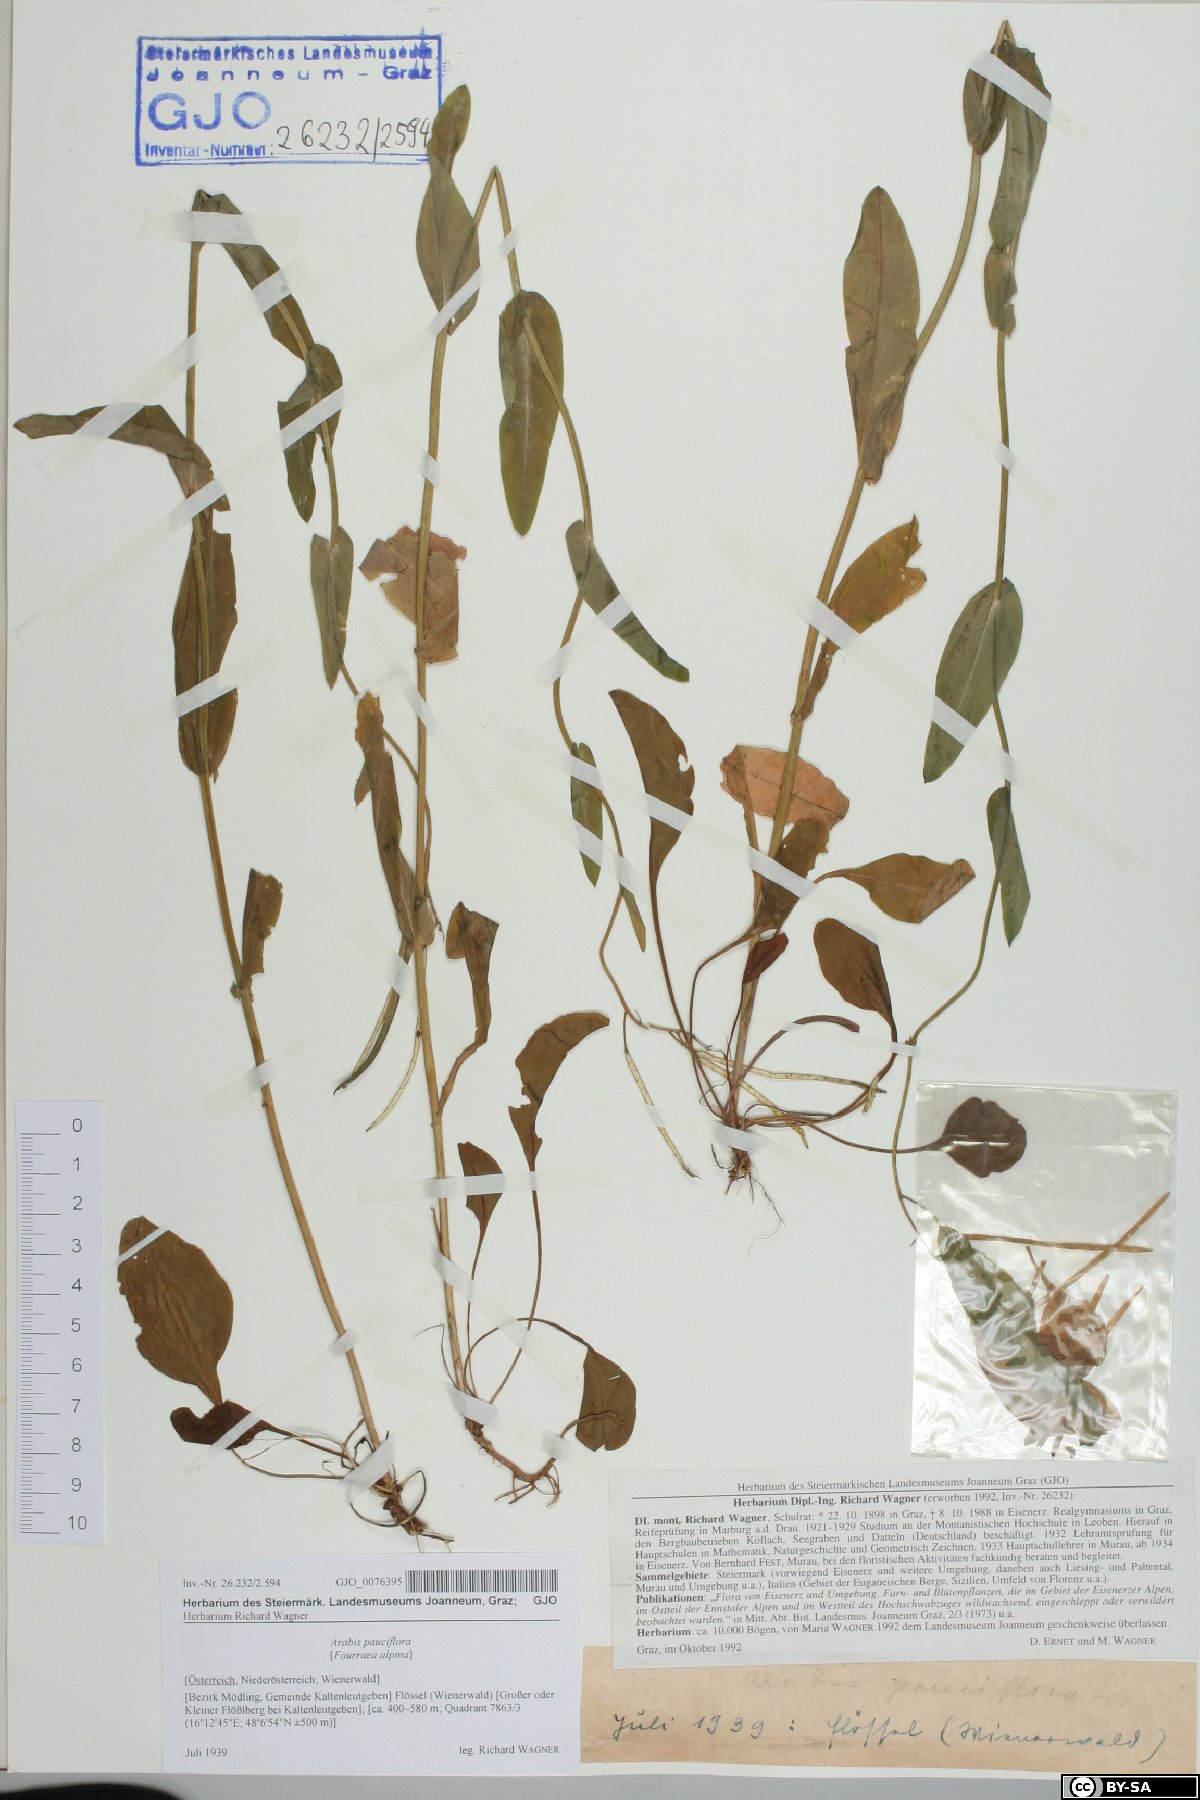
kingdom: Plantae
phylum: Tracheophyta
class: Magnoliopsida
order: Brassicales
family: Brassicaceae
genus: Fourraea
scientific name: Fourraea alpina
